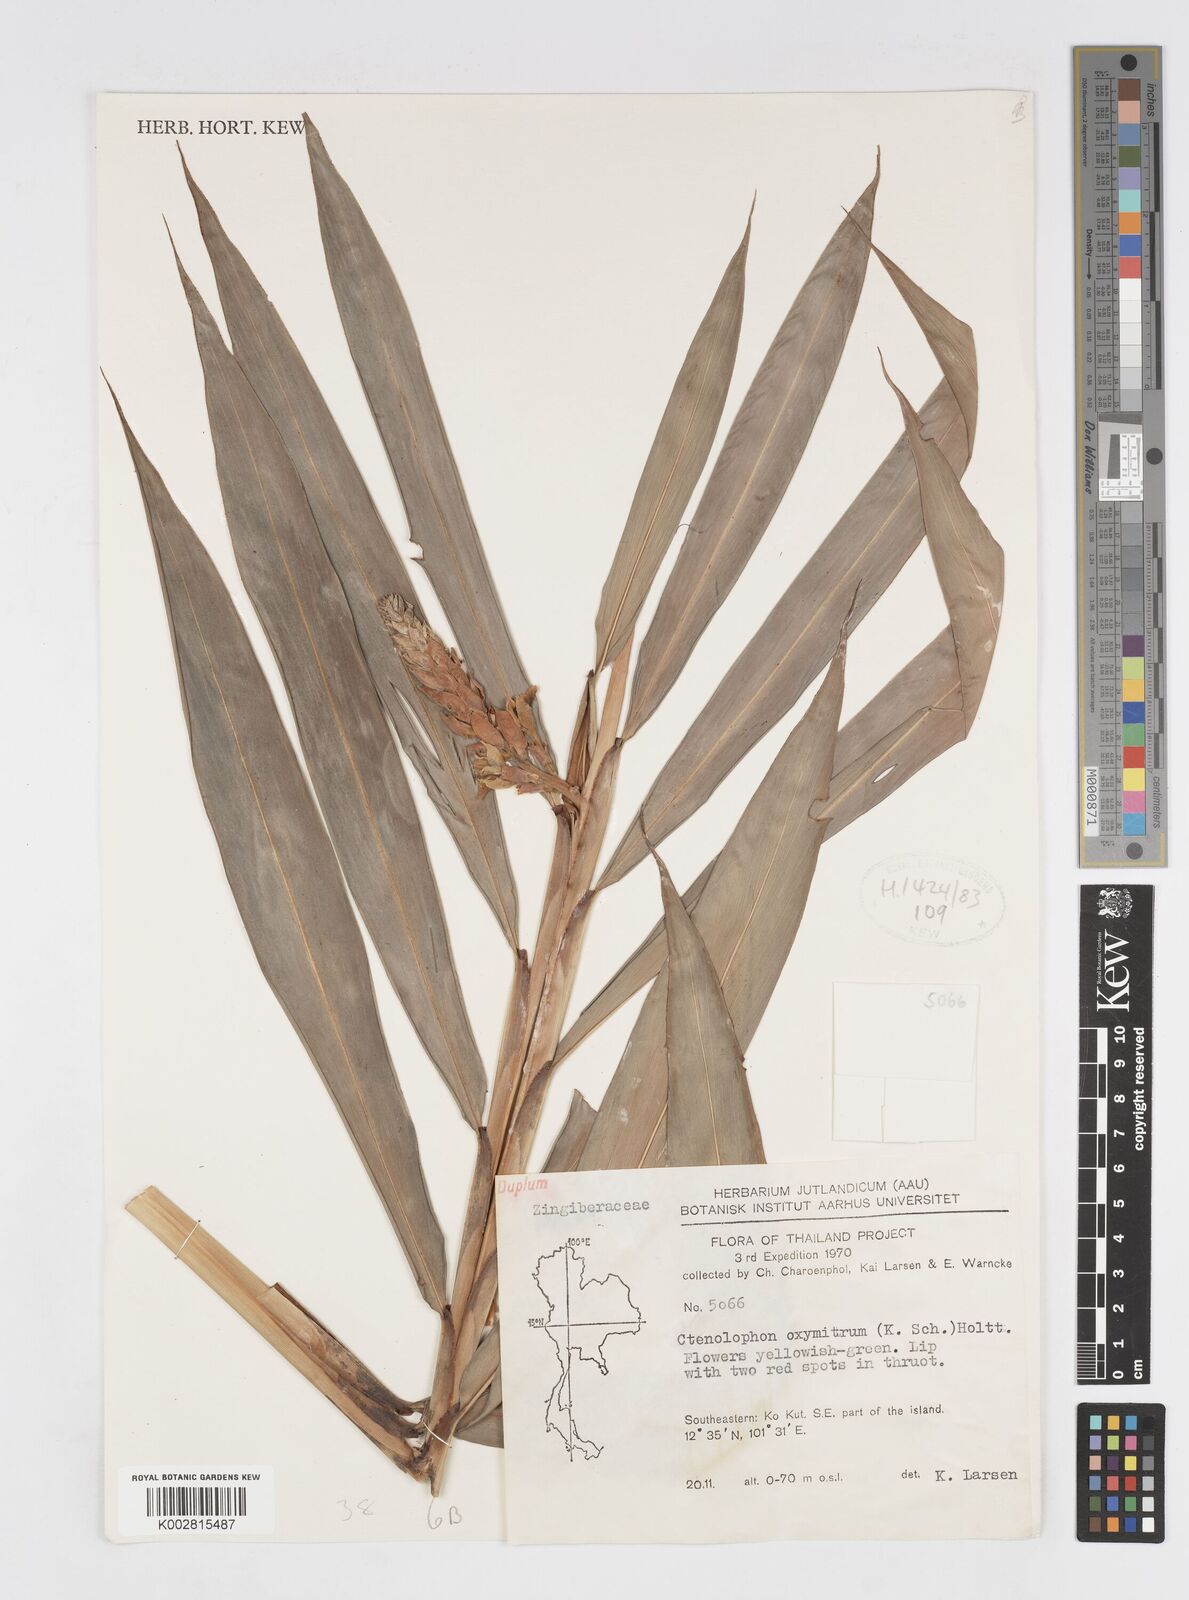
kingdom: Plantae
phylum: Tracheophyta
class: Liliopsida
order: Zingiberales
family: Zingiberaceae
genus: Alpinia
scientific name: Alpinia oxymitra
